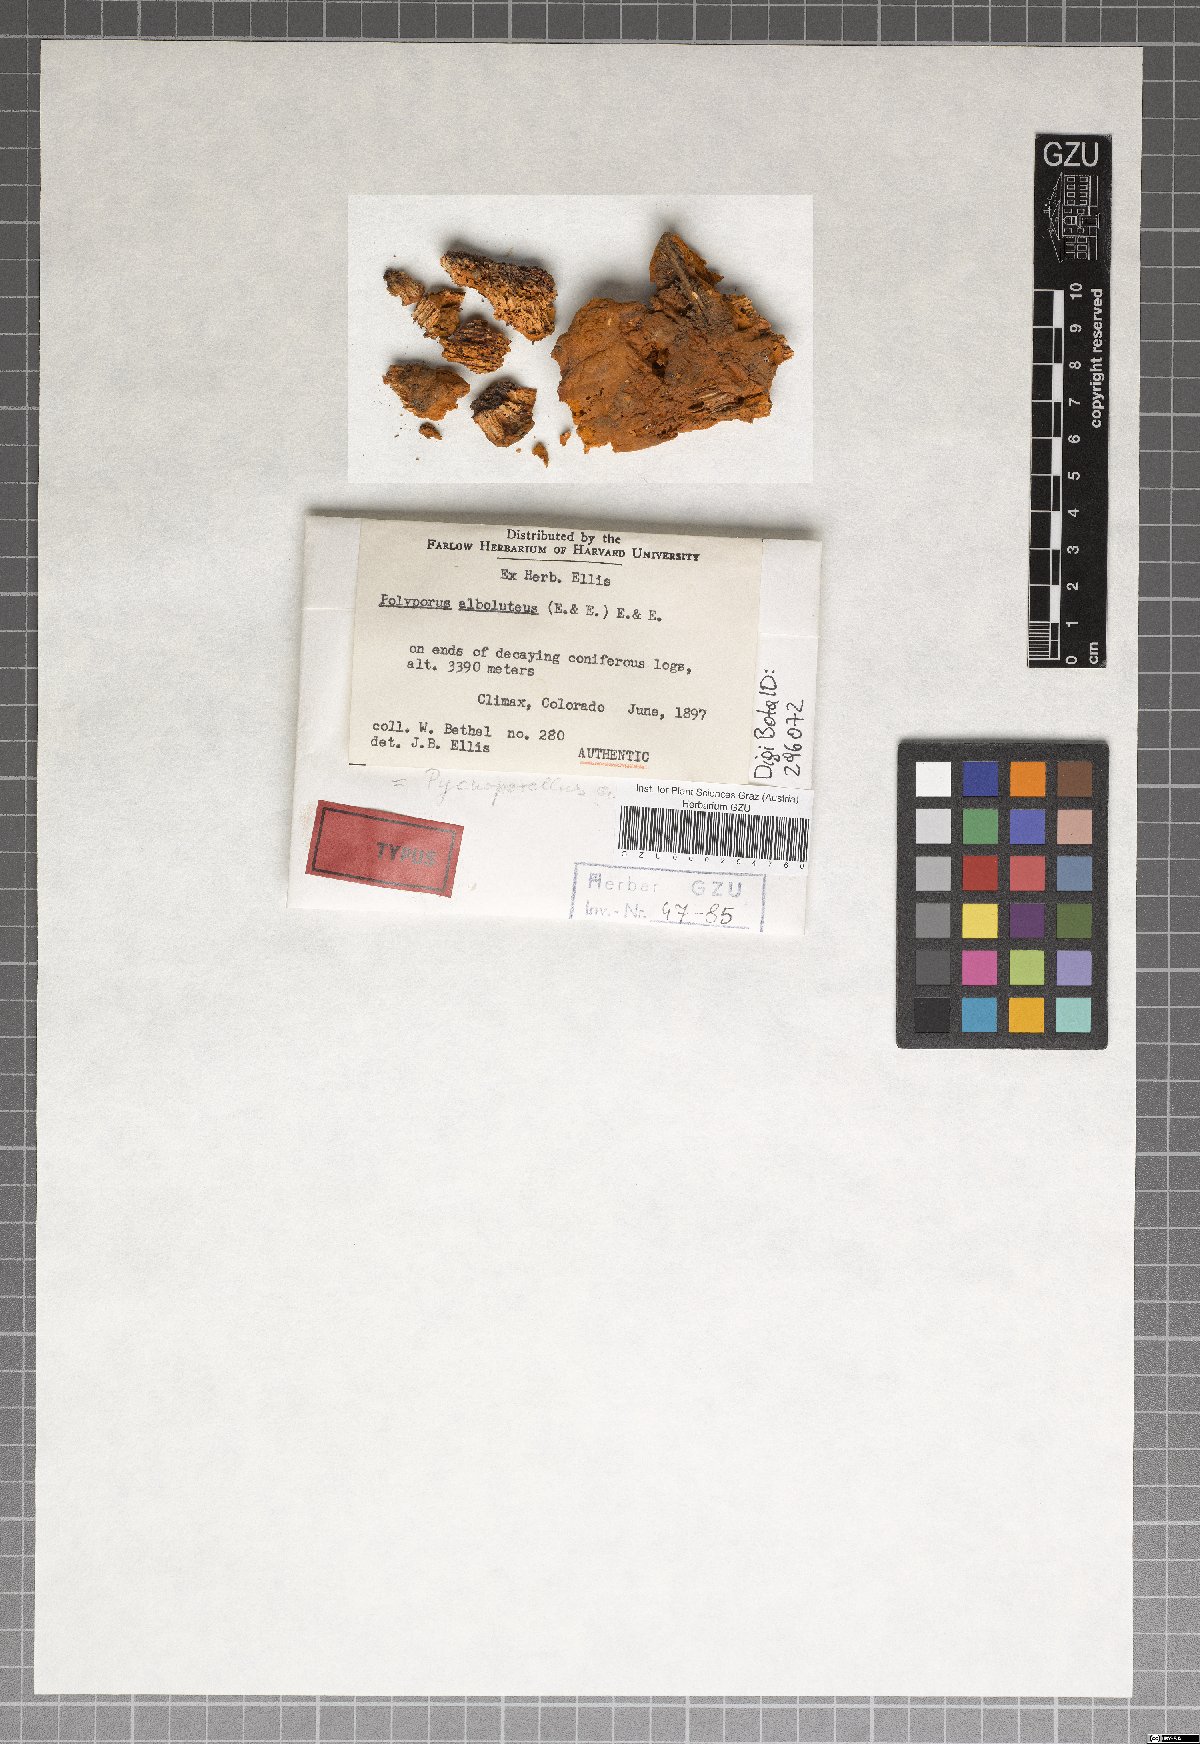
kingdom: Fungi
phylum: Basidiomycota
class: Agaricomycetes
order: Polyporales
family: Pycnoporellaceae
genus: Pycnoporellus
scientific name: Pycnoporellus alboluteus
